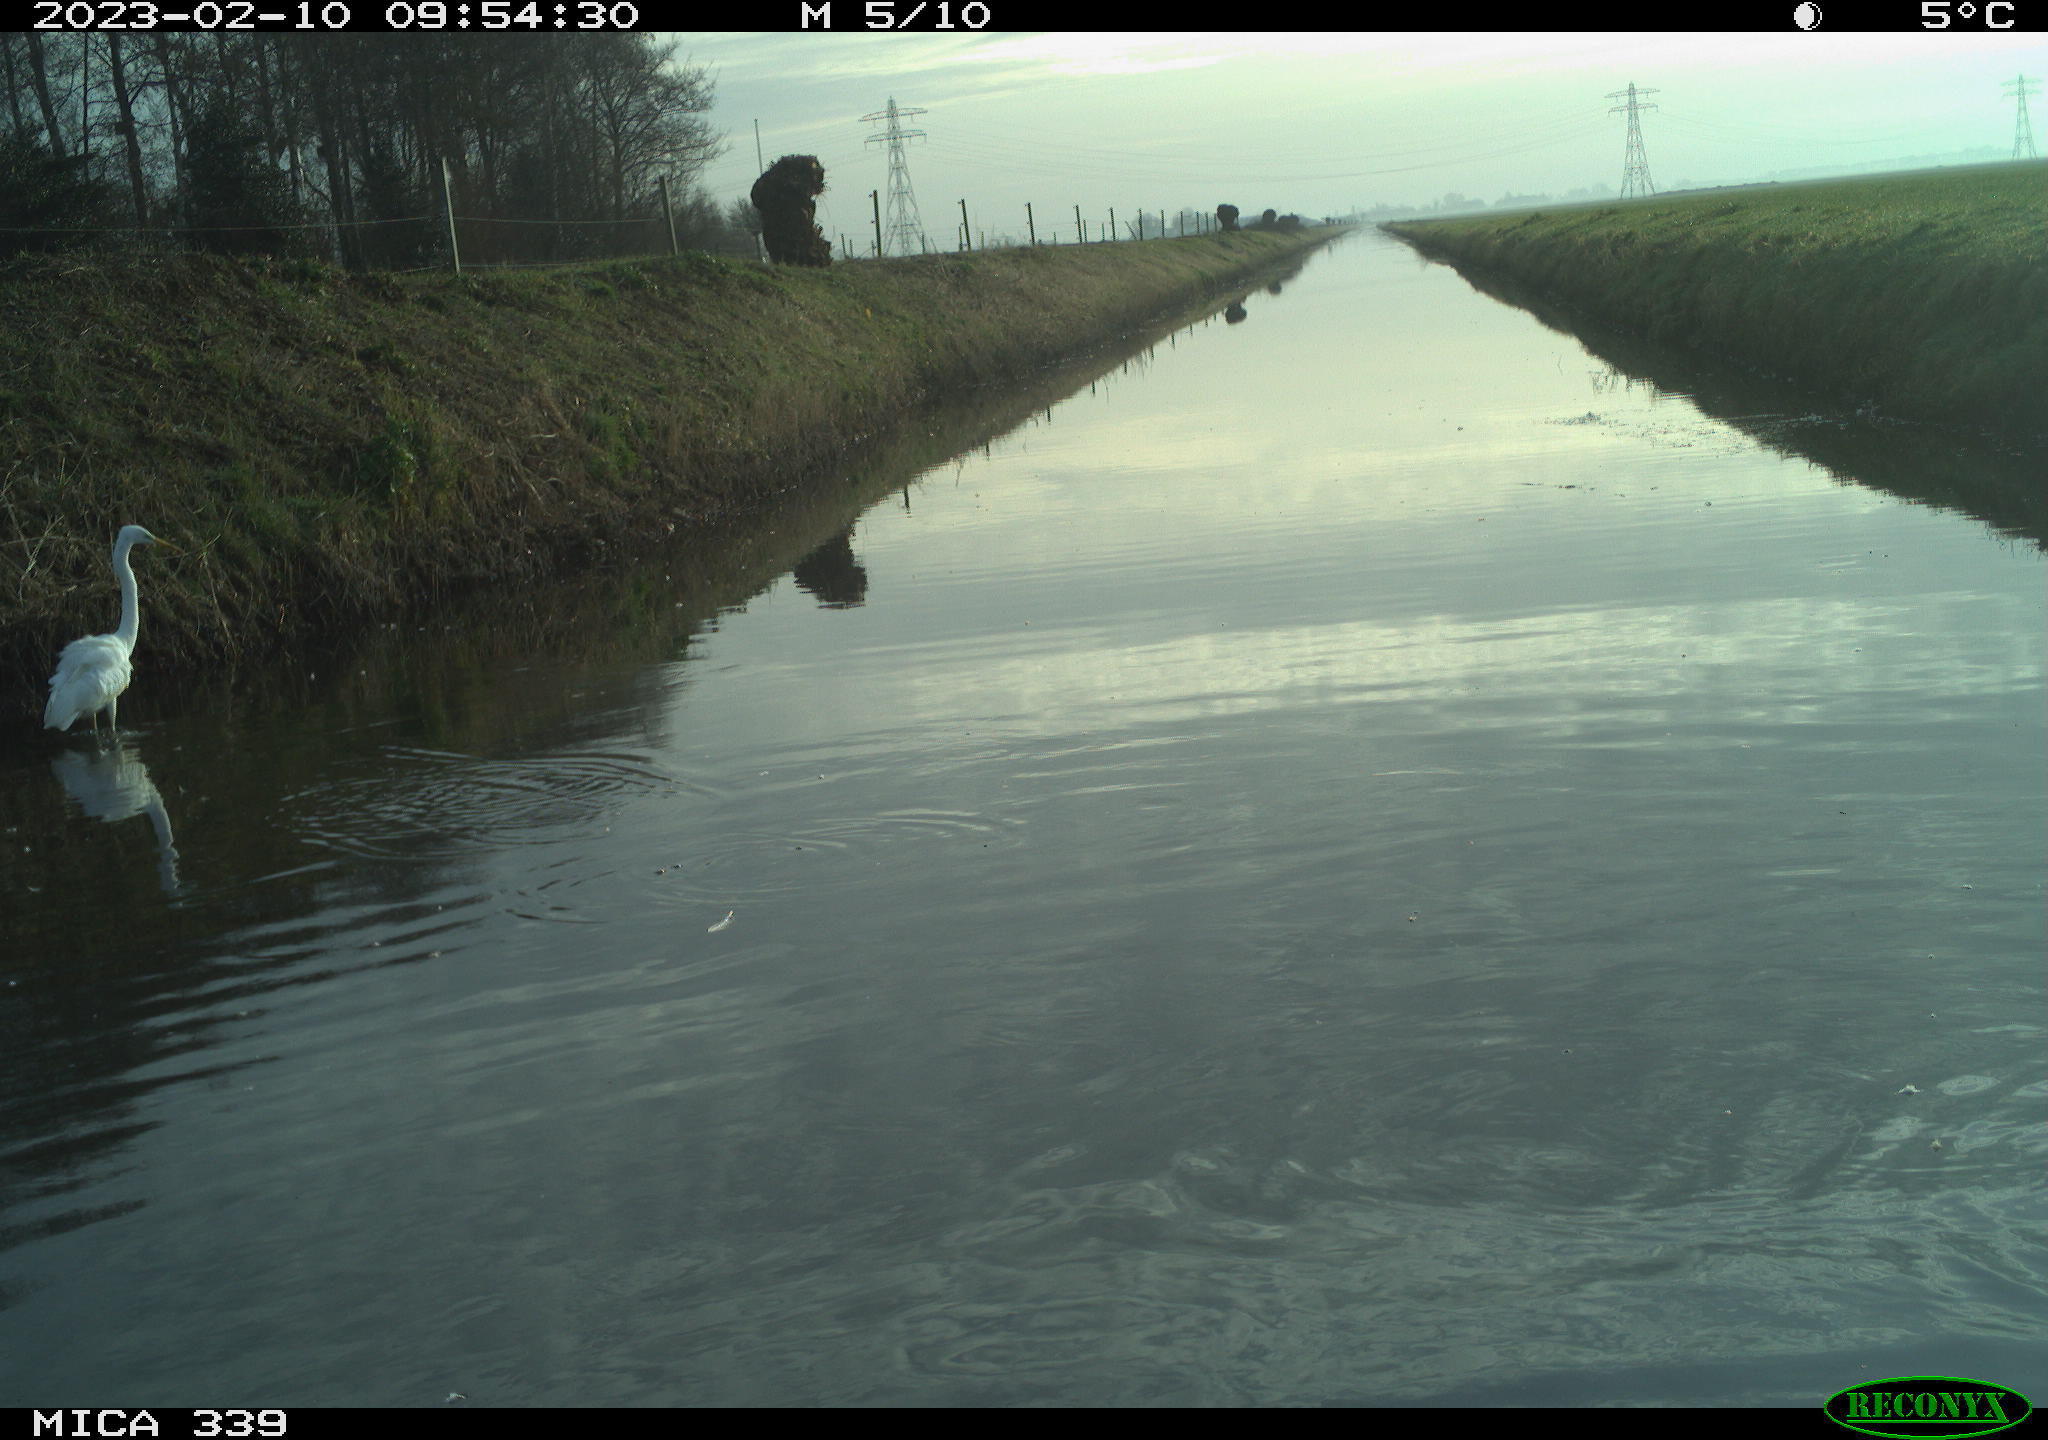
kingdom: Animalia
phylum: Chordata
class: Aves
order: Pelecaniformes
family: Ardeidae
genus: Ardea
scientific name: Ardea alba
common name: Great egret
